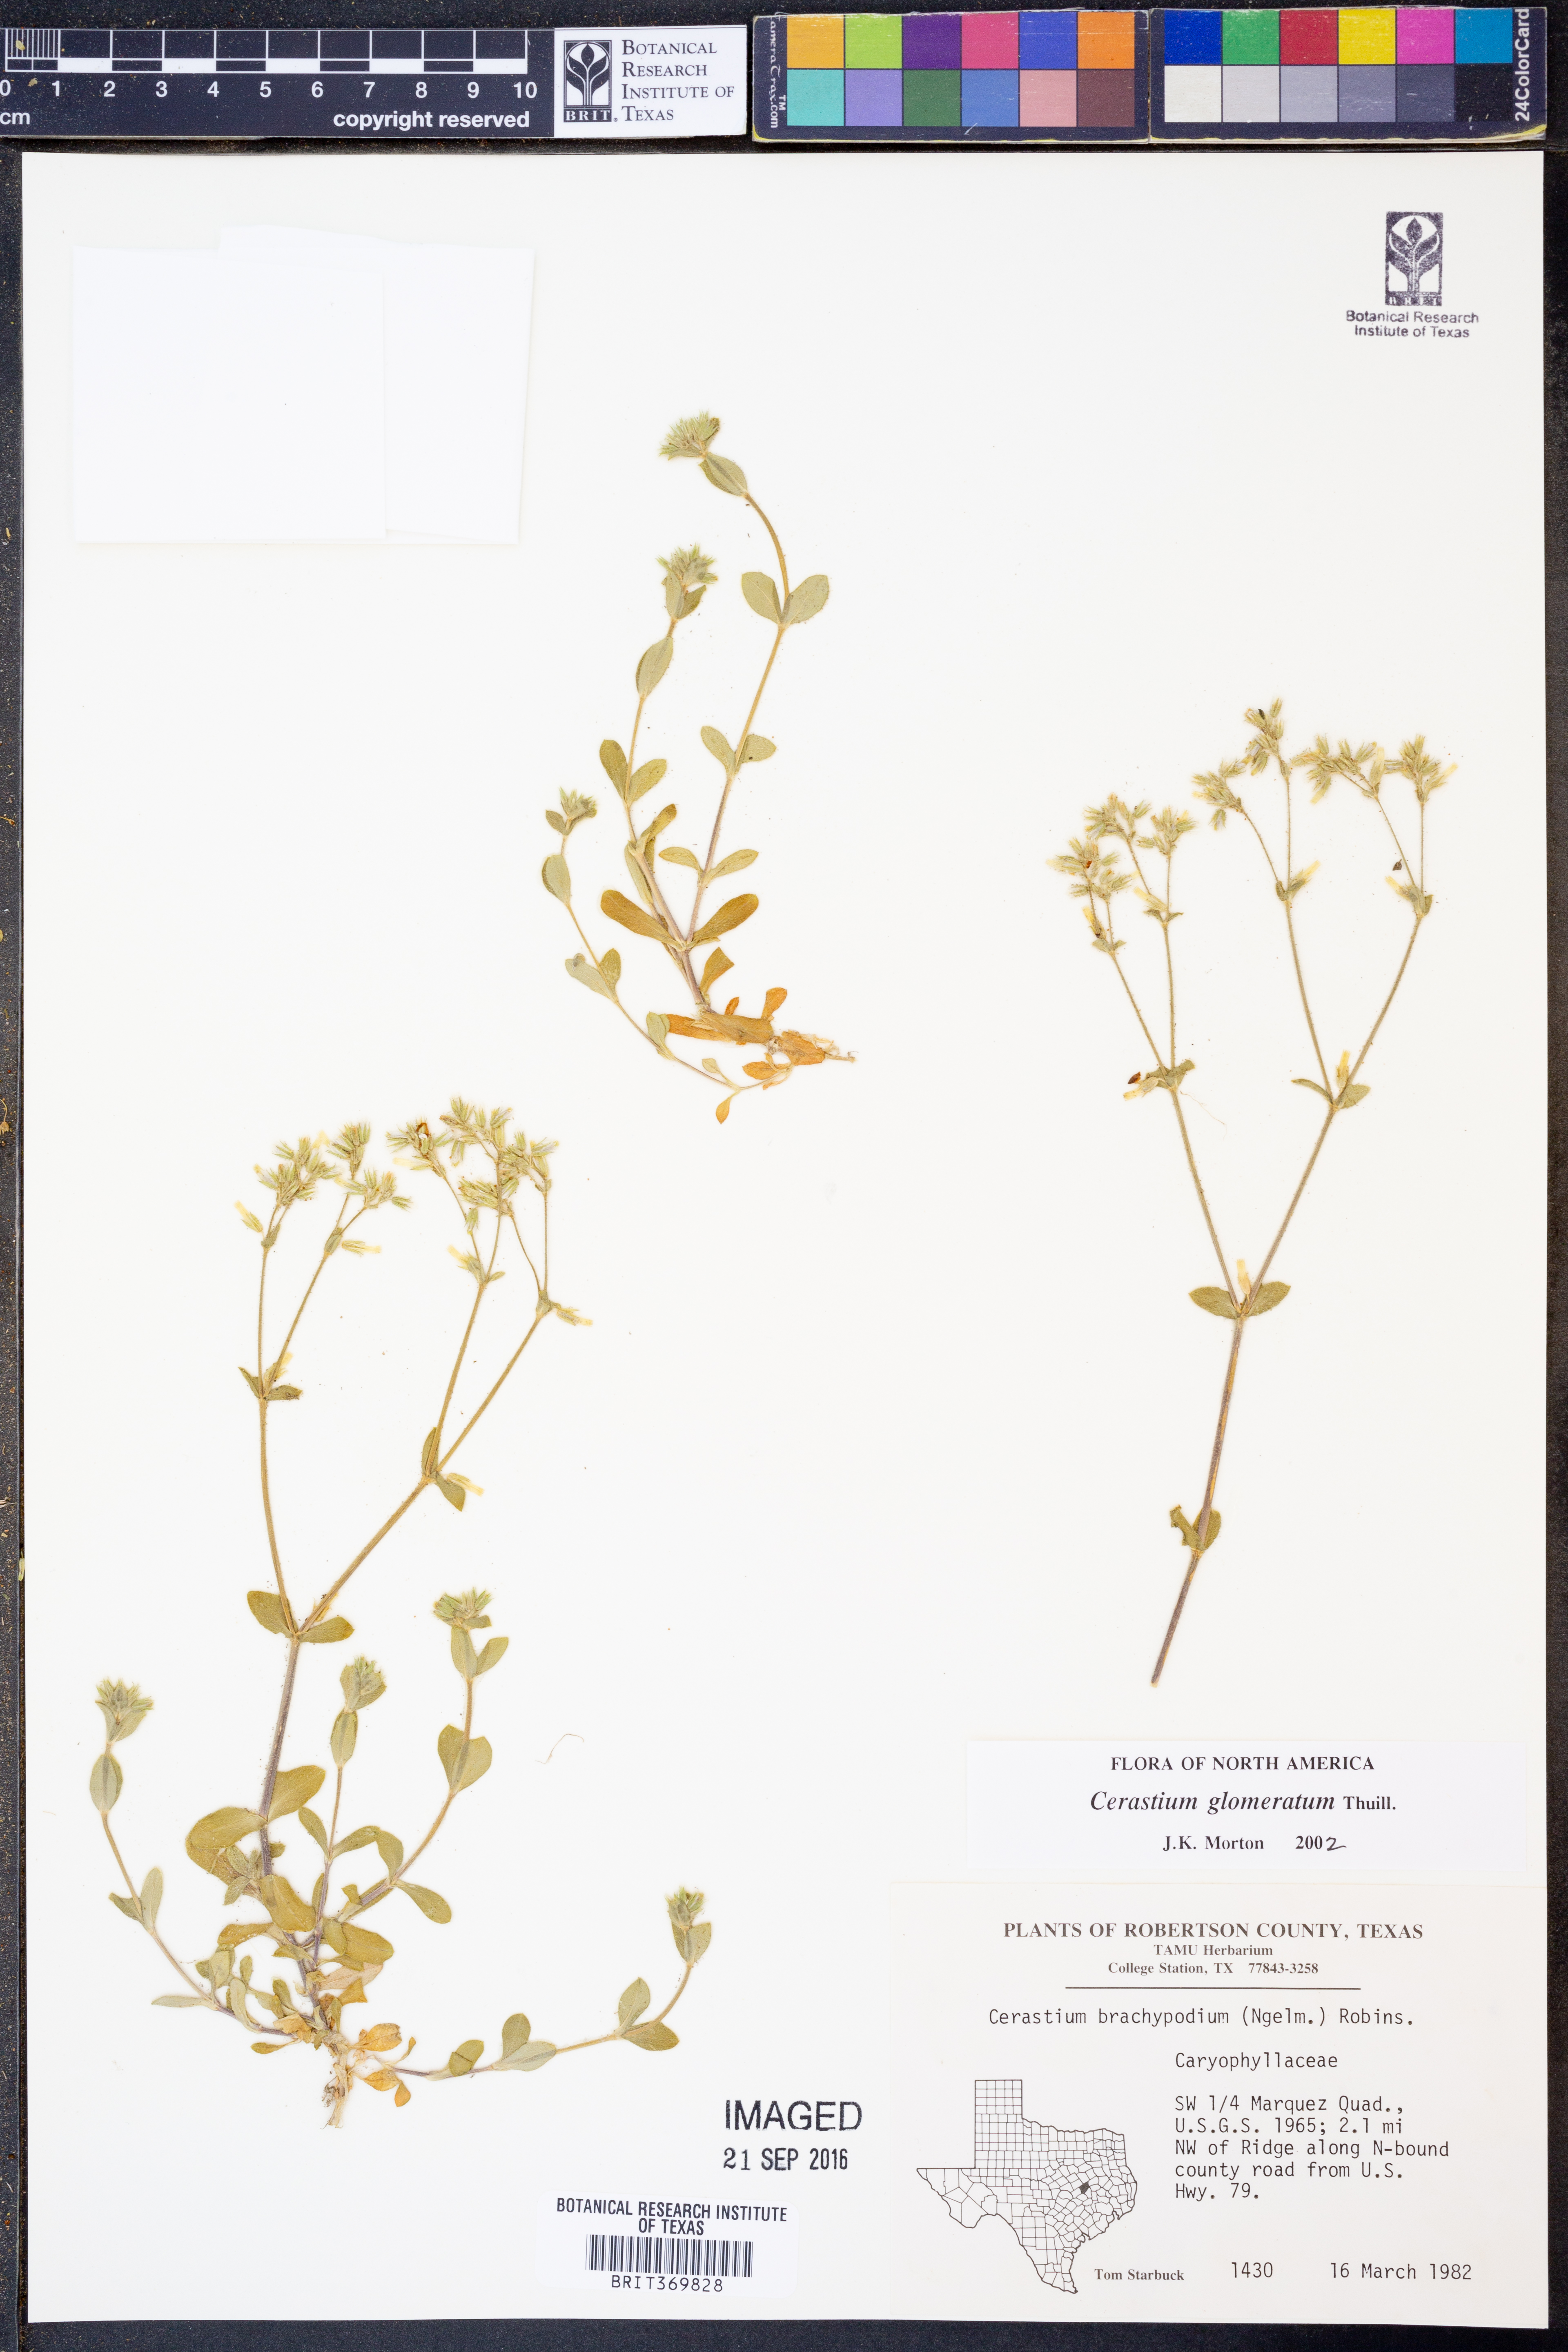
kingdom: Plantae
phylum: Tracheophyta
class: Magnoliopsida
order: Caryophyllales
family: Caryophyllaceae
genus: Cerastium
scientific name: Cerastium glomeratum
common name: Sticky chickweed
